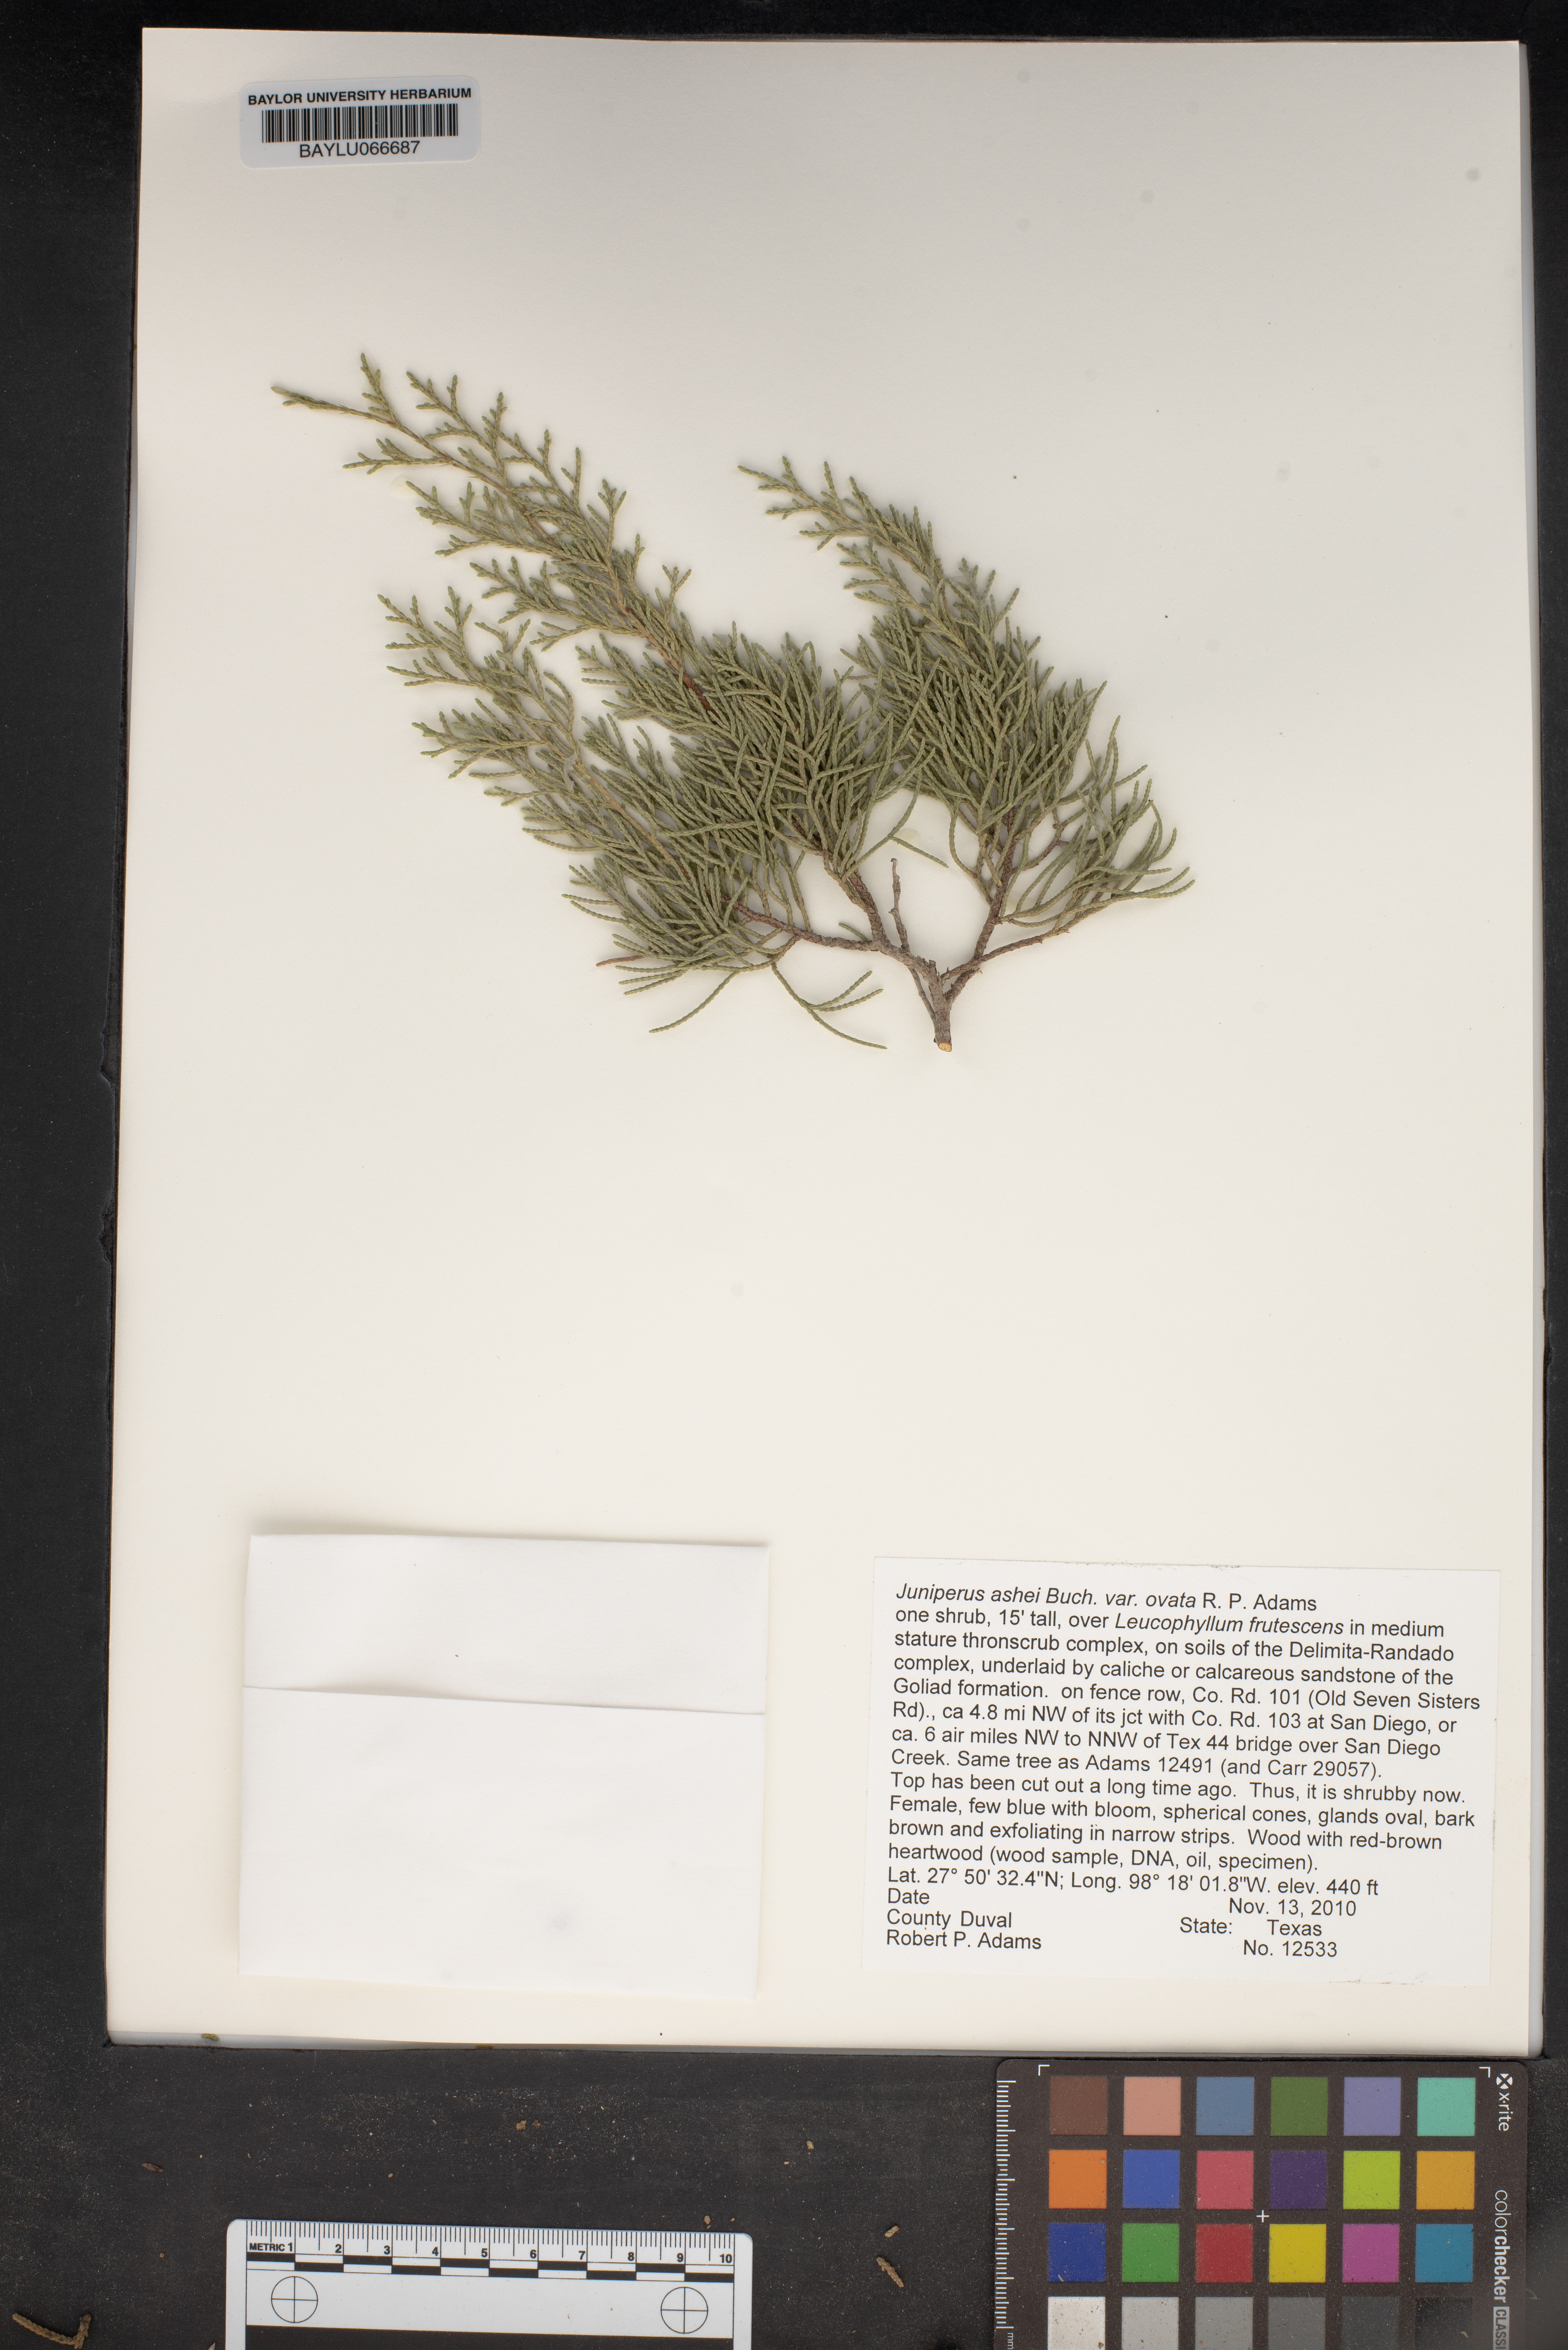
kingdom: Plantae
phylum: Tracheophyta
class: Pinopsida
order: Pinales
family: Cupressaceae
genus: Juniperus
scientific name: Juniperus ashei
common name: Mexican juniper
